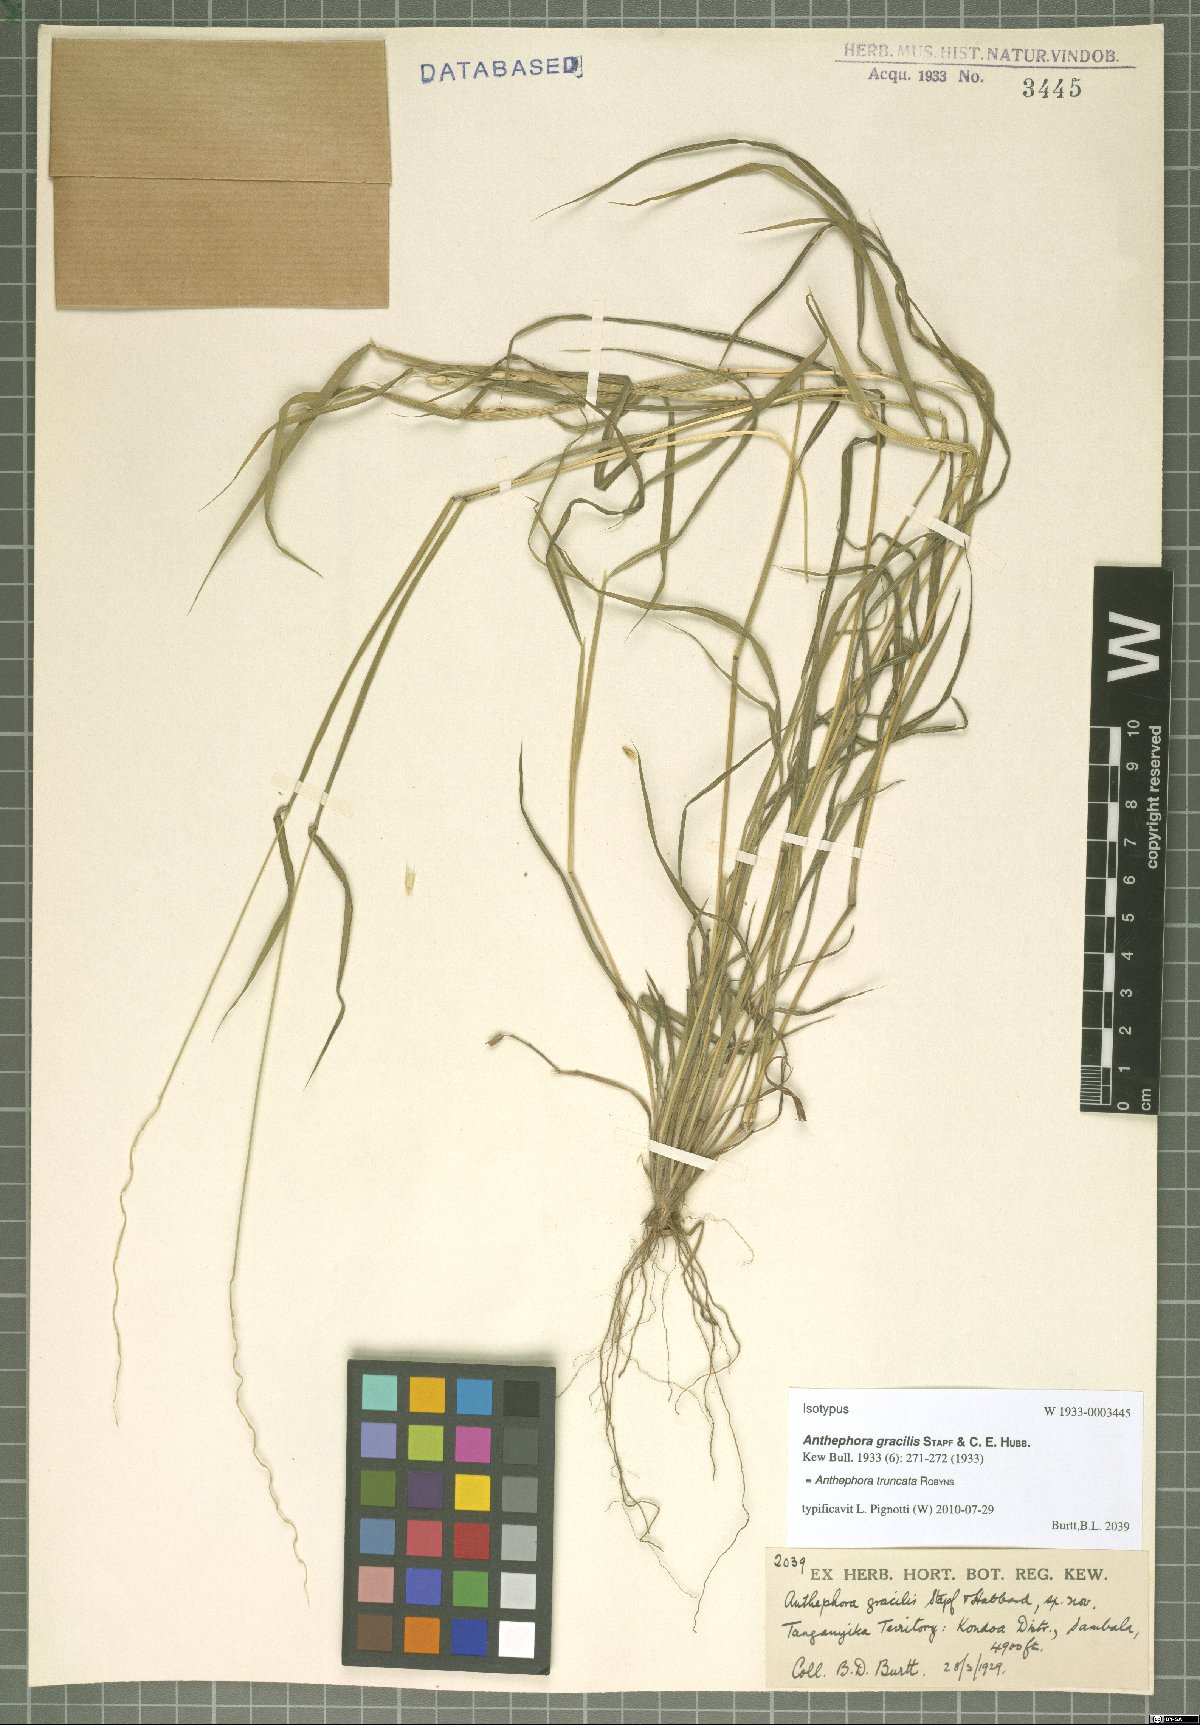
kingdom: Plantae
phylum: Tracheophyta
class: Liliopsida
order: Poales
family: Poaceae
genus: Anthephora
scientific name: Anthephora truncata
